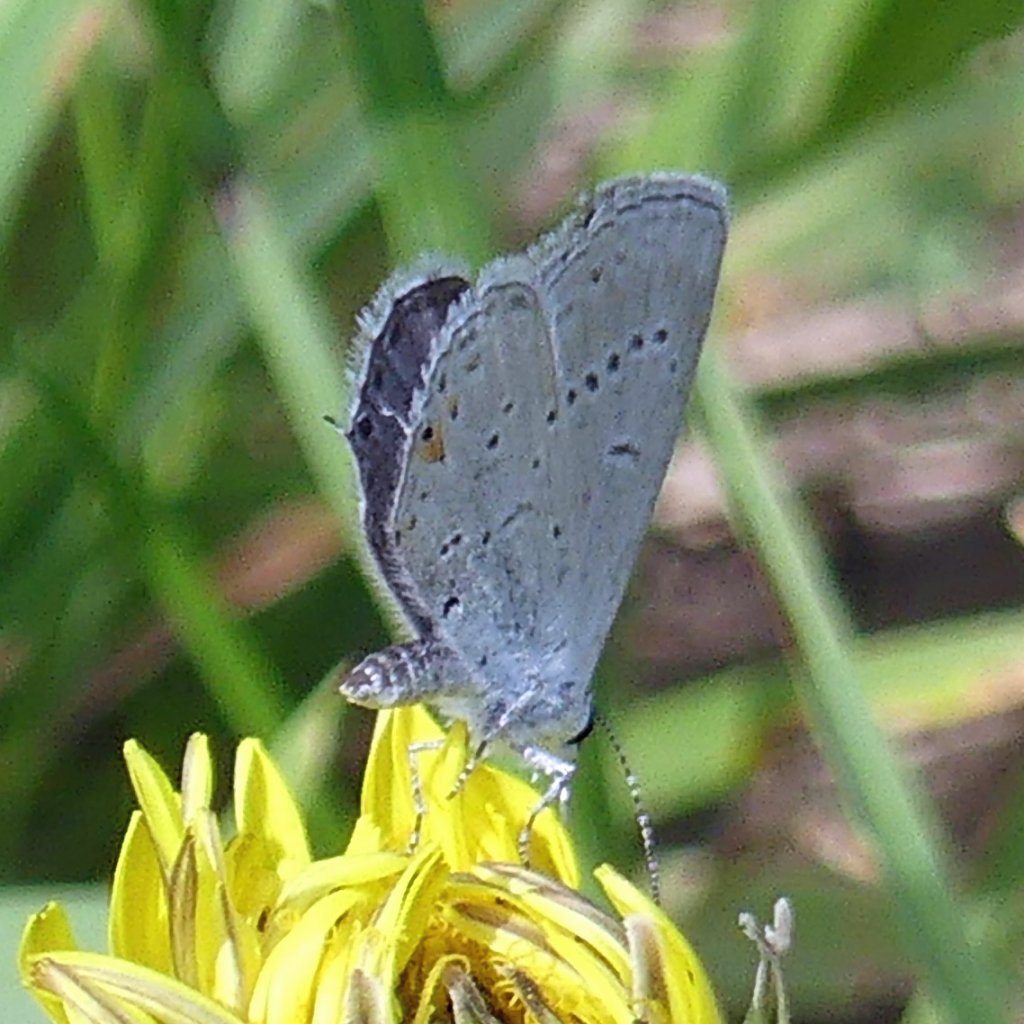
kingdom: Animalia
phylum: Arthropoda
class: Insecta
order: Lepidoptera
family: Lycaenidae
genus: Elkalyce
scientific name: Elkalyce comyntas
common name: Eastern Tailed-Blue
